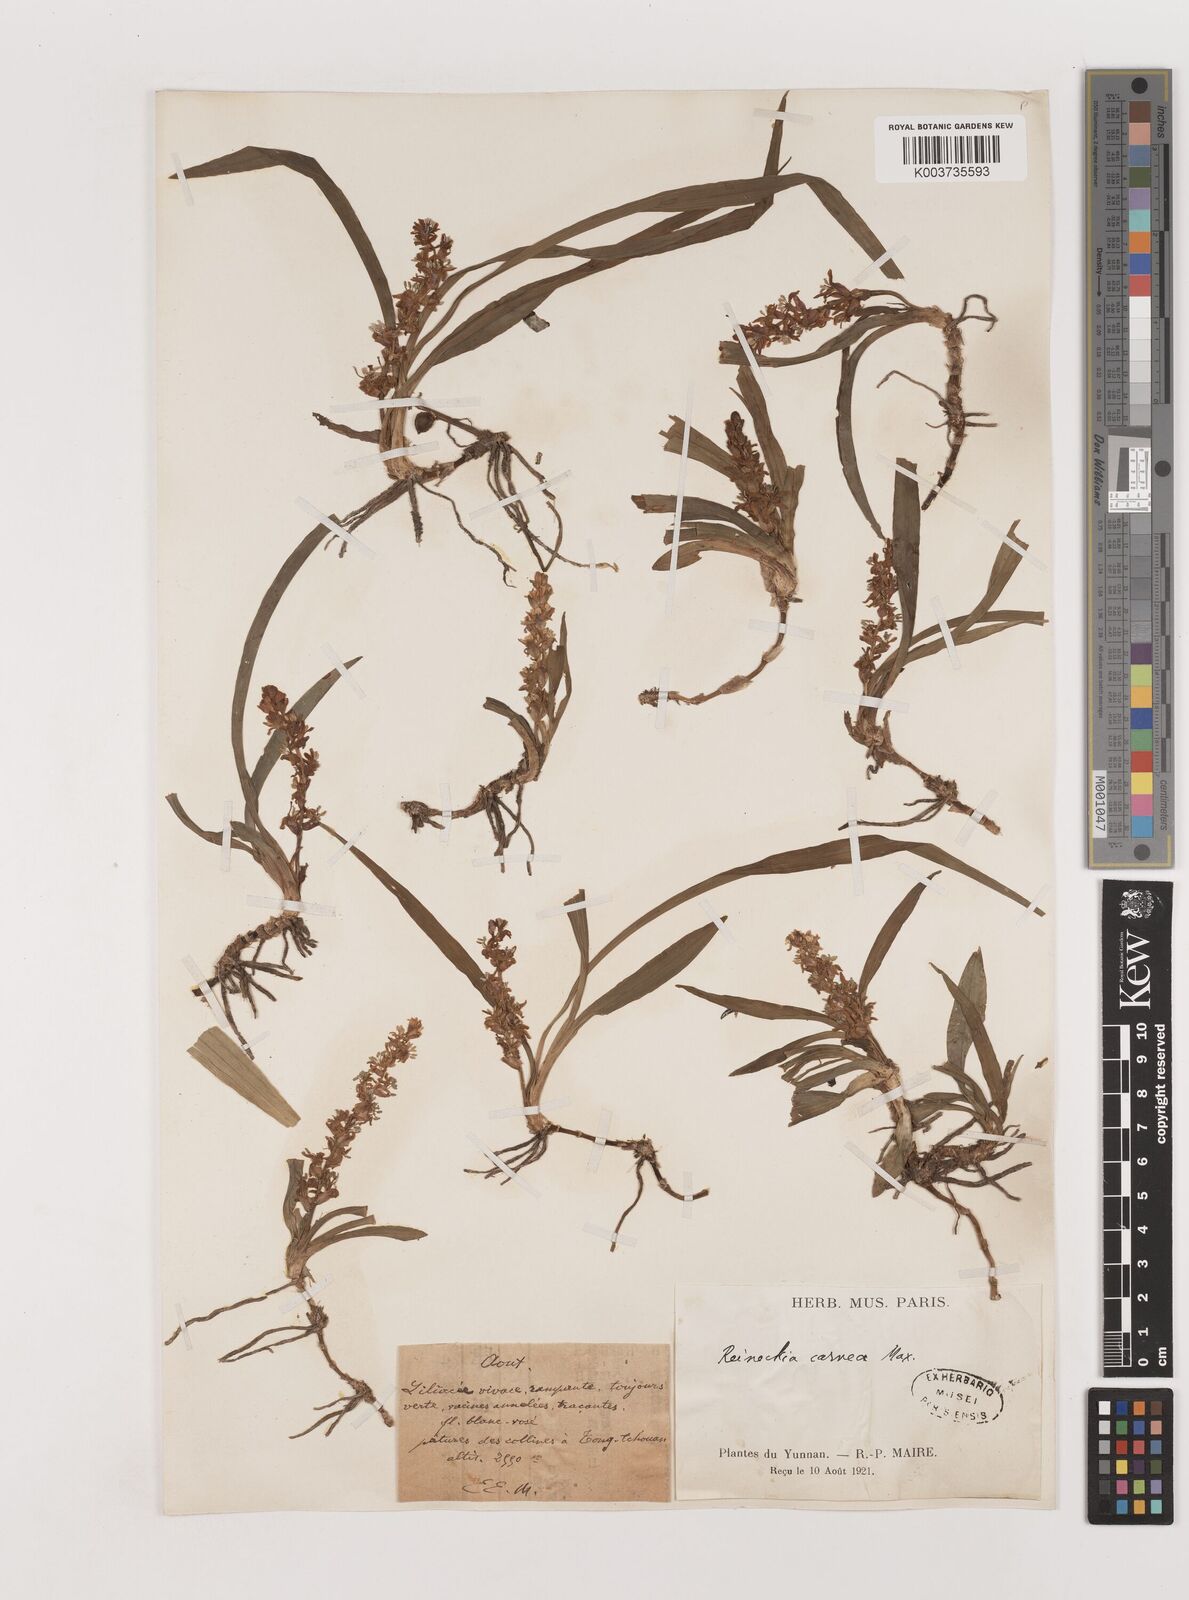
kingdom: Plantae
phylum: Tracheophyta
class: Liliopsida
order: Asparagales
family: Asparagaceae
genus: Reineckea
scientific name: Reineckea carnea
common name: Reineckea
